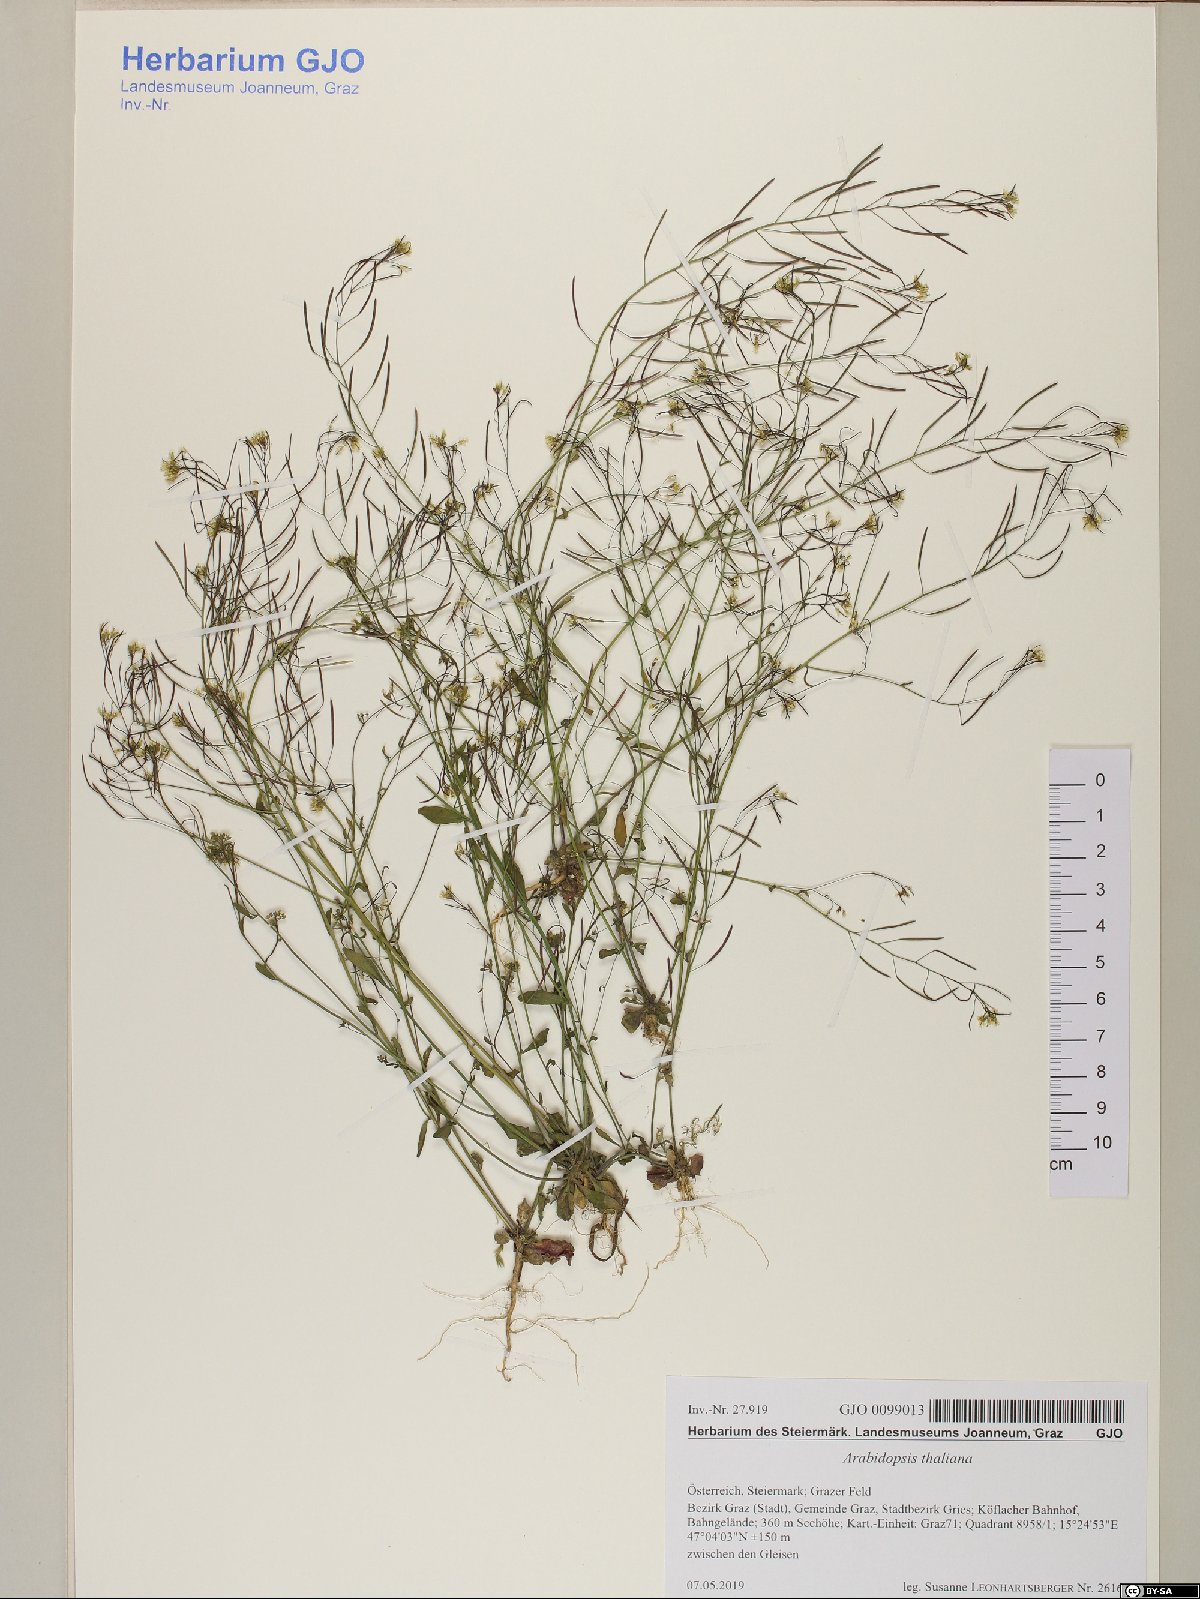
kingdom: Plantae
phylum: Tracheophyta
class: Magnoliopsida
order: Brassicales
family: Brassicaceae
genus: Arabidopsis
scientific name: Arabidopsis thaliana
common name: Thale cress
